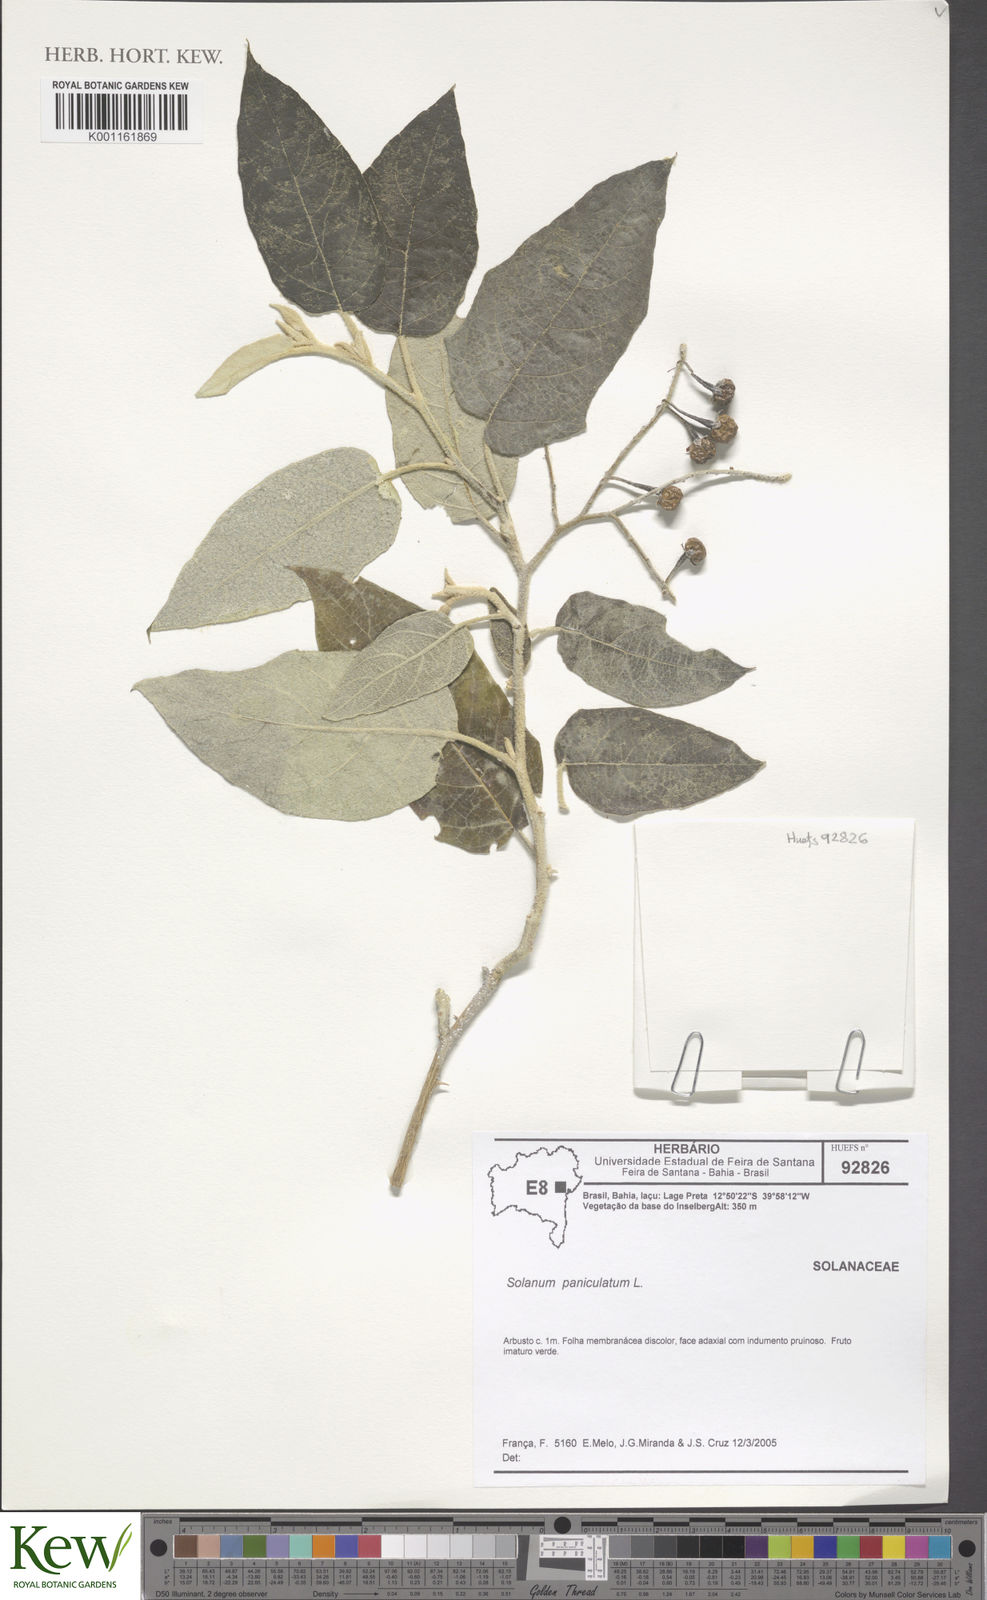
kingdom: Plantae
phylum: Tracheophyta
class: Magnoliopsida
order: Solanales
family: Solanaceae
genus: Solanum
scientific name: Solanum paniculatum
